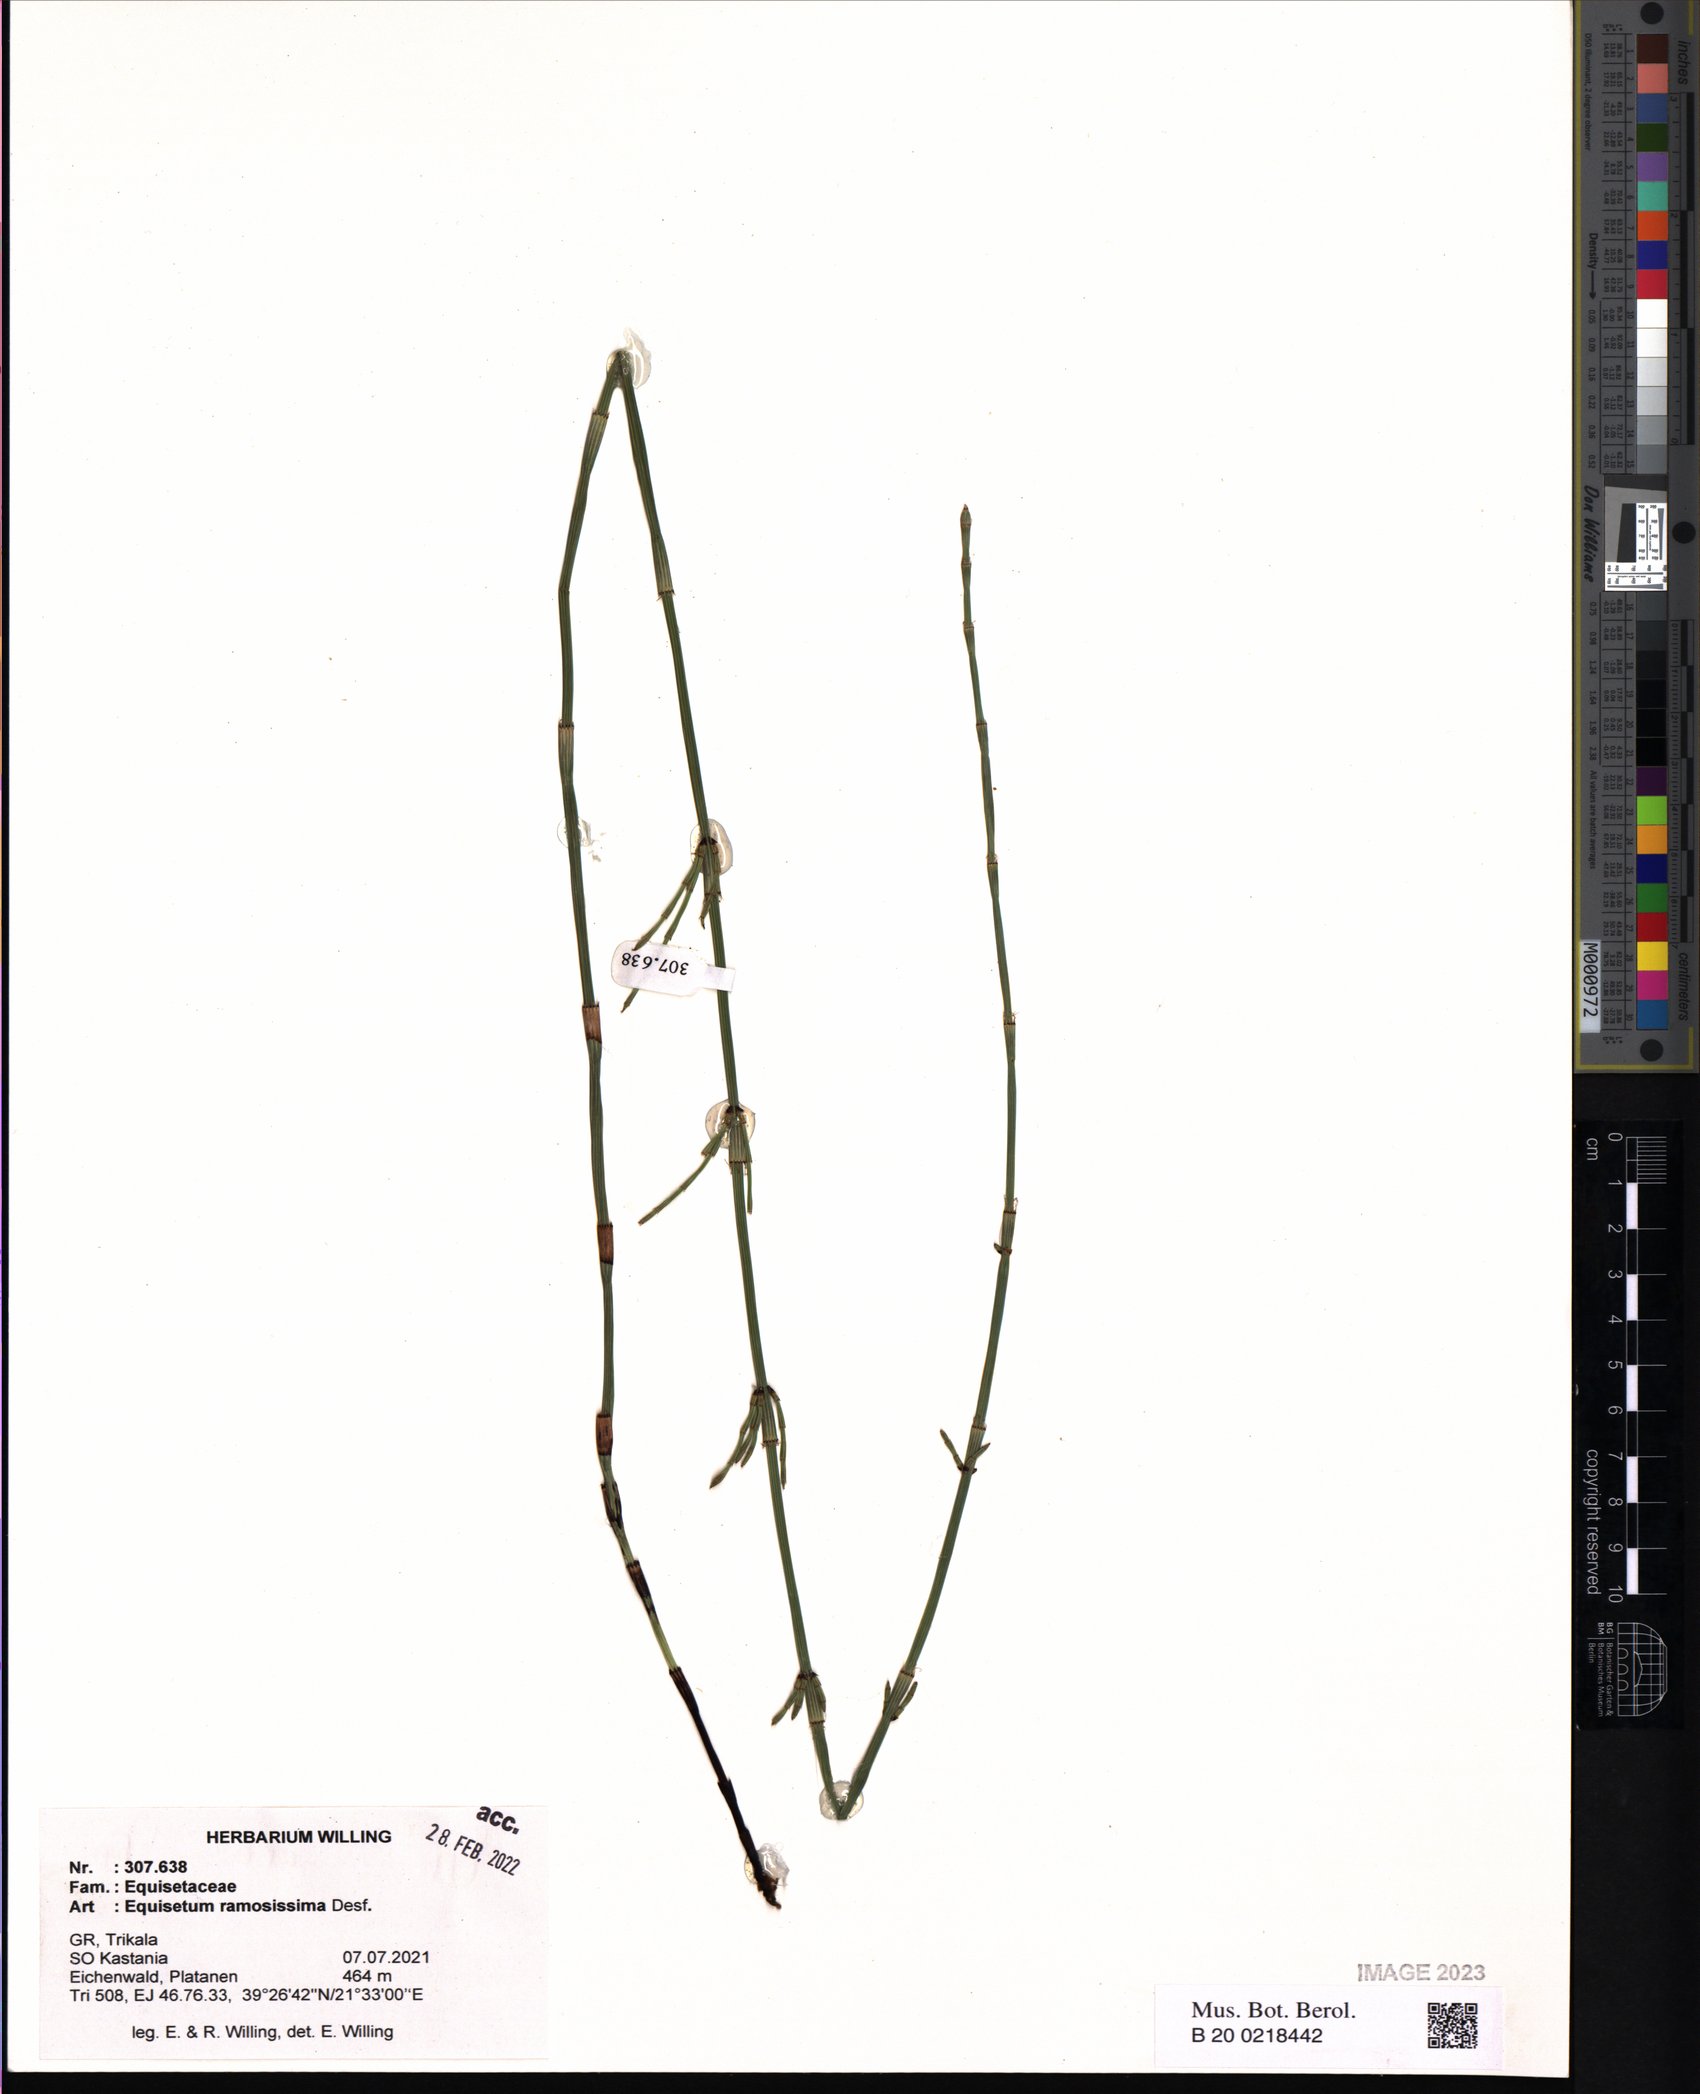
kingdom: Plantae
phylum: Tracheophyta
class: Polypodiopsida
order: Equisetales
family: Equisetaceae
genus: Equisetum
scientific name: Equisetum ramosissimum
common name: Branched horsetail
